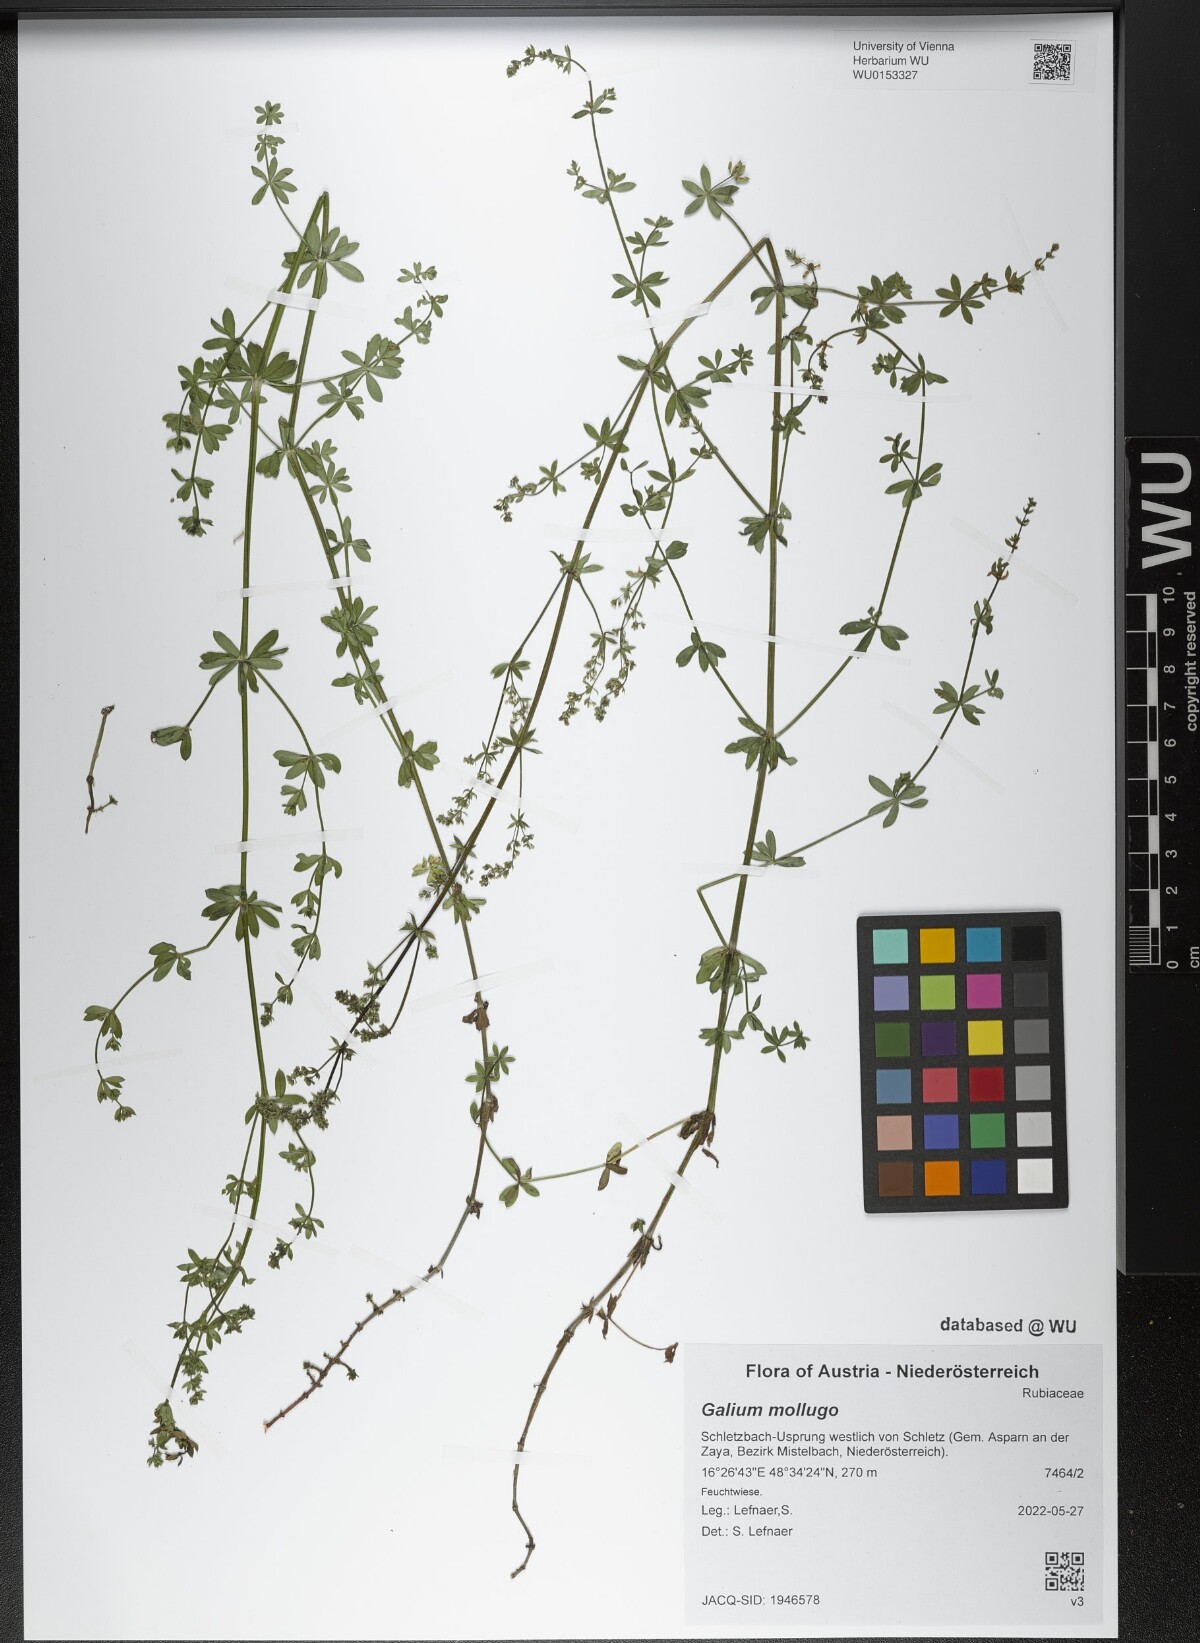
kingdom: Plantae
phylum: Tracheophyta
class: Magnoliopsida
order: Gentianales
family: Rubiaceae
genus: Galium
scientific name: Galium mollugo
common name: Hedge bedstraw
